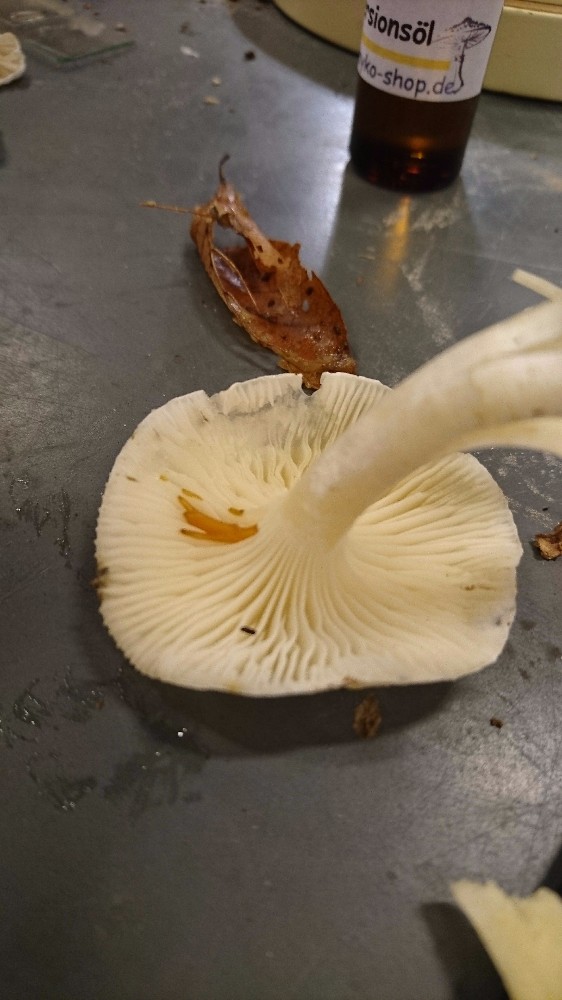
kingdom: Fungi
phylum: Basidiomycota
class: Agaricomycetes
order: Agaricales
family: Hygrophoraceae
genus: Hygrophorus
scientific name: Hygrophorus discoxanthus
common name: ildelugtende sneglehat
